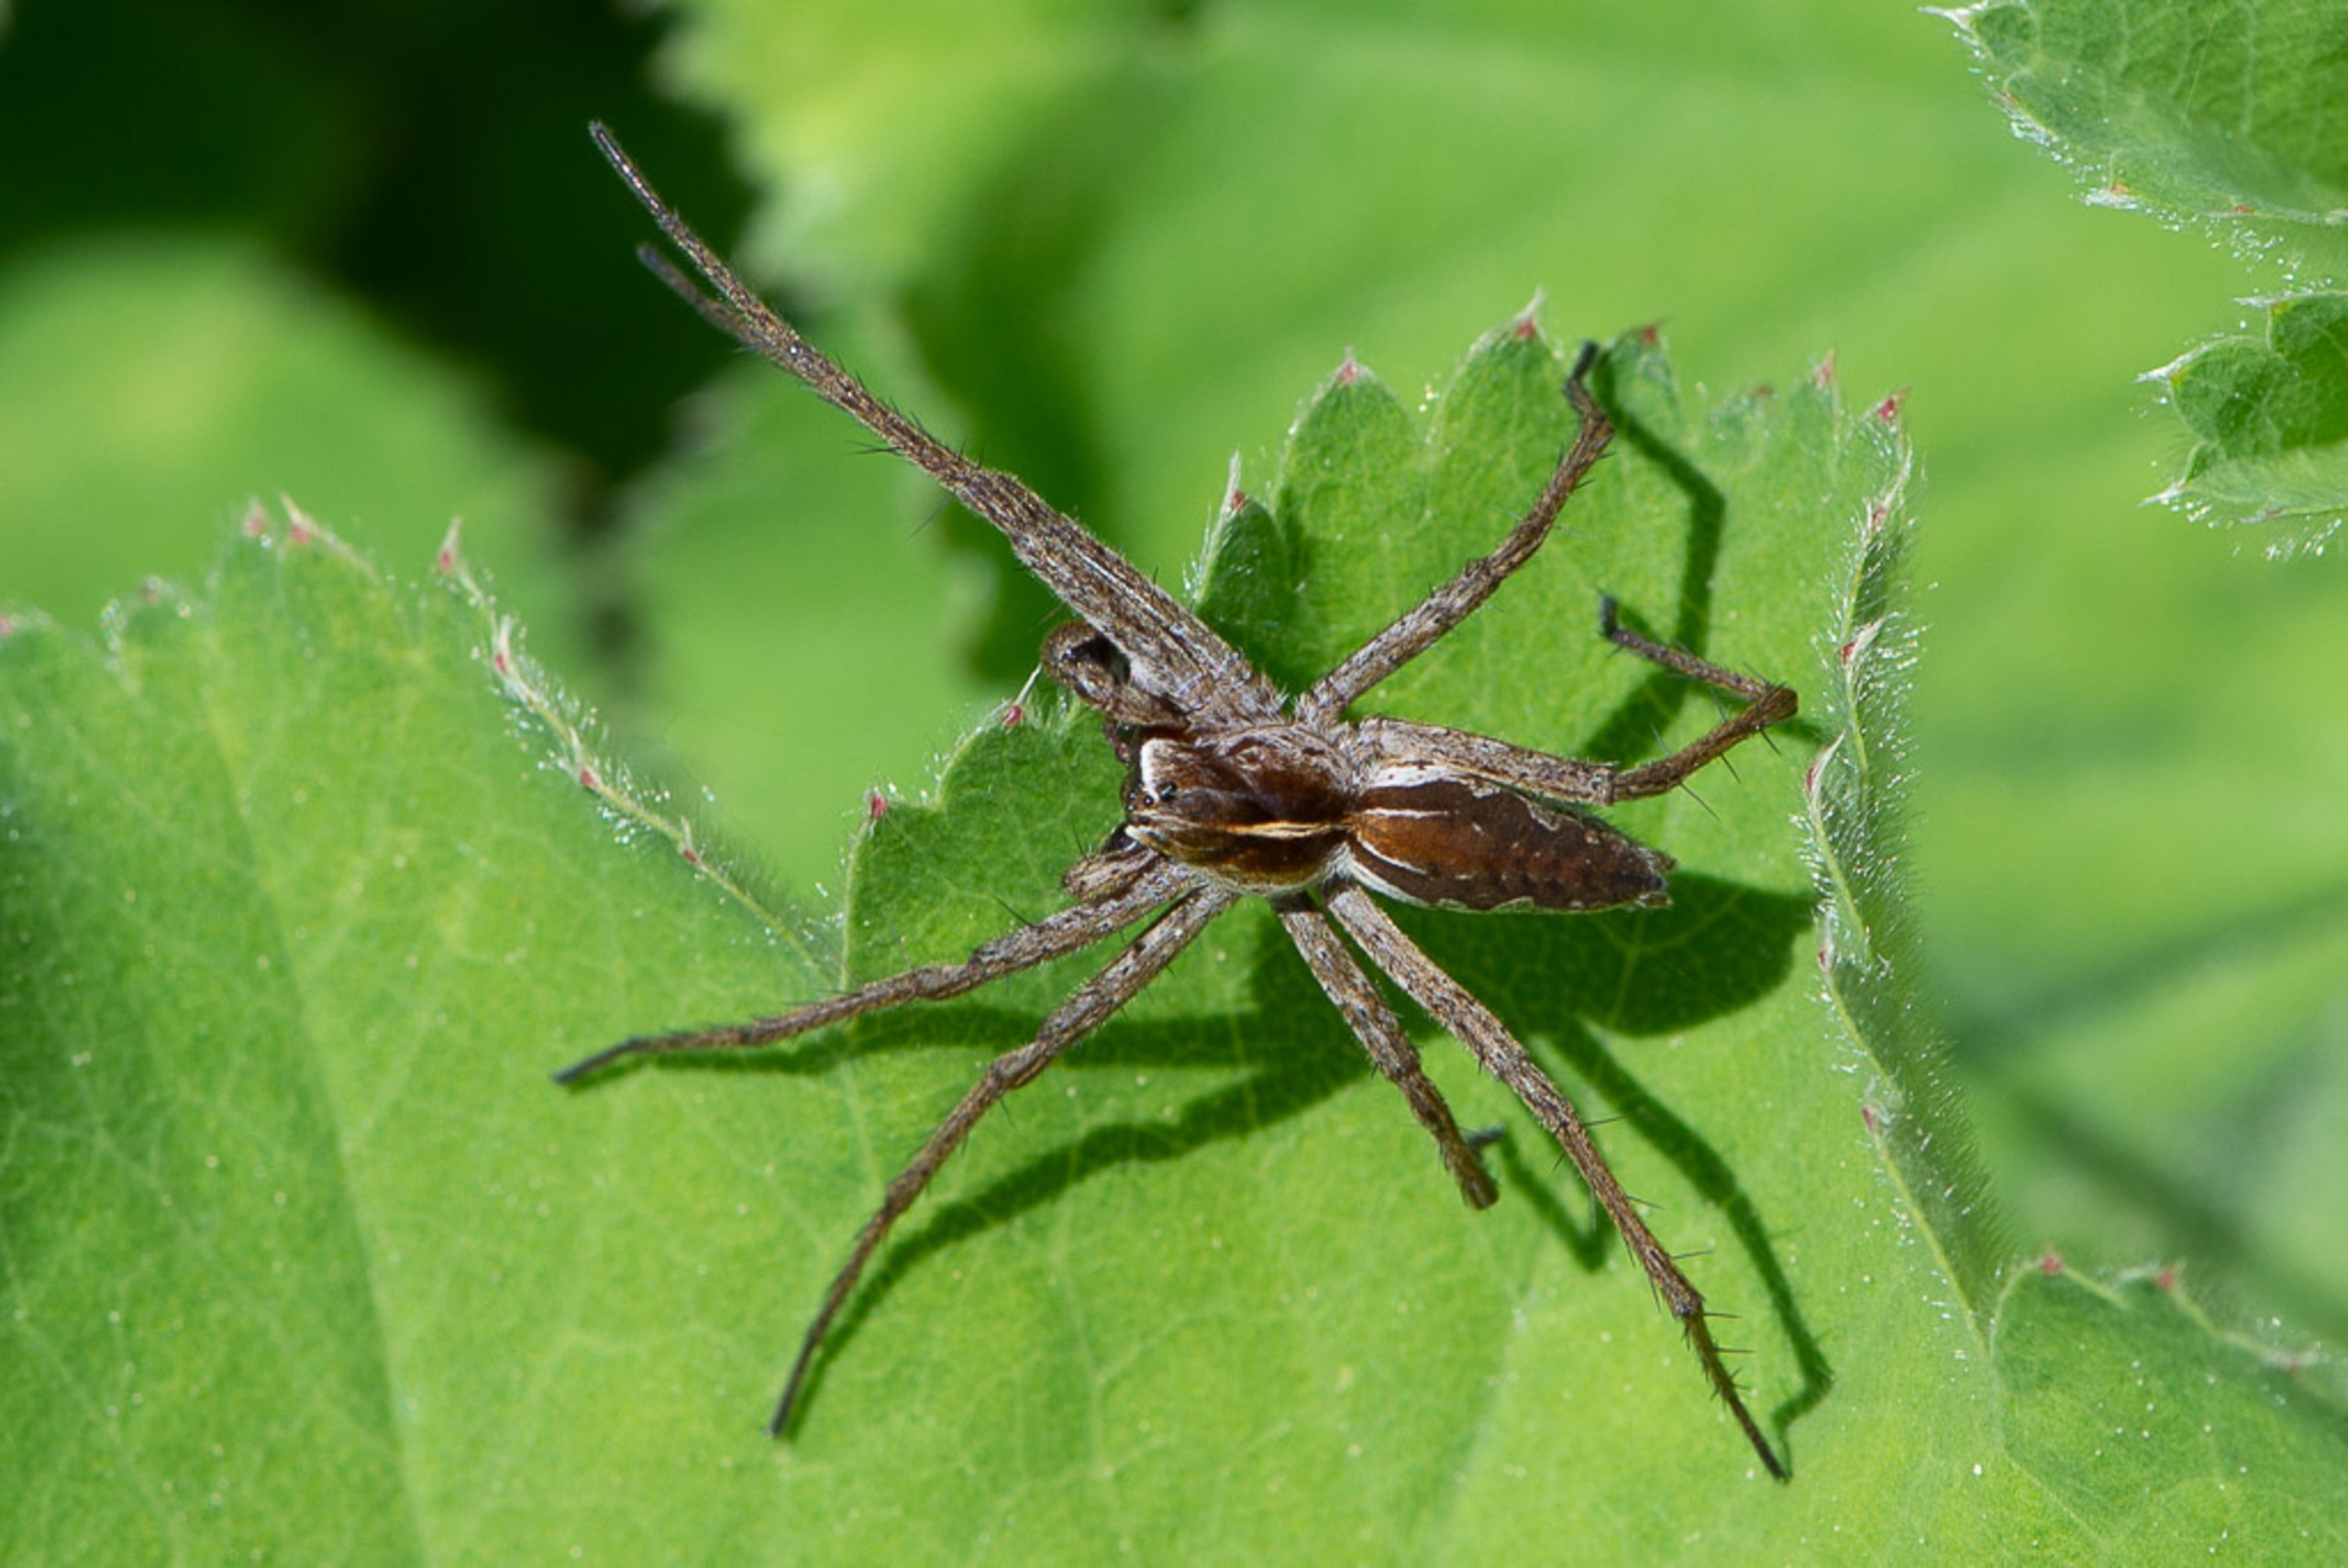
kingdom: Animalia
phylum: Arthropoda
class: Arachnida
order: Araneae
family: Pisauridae
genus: Pisaura
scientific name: Pisaura mirabilis
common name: Almindelig rovedderkop
